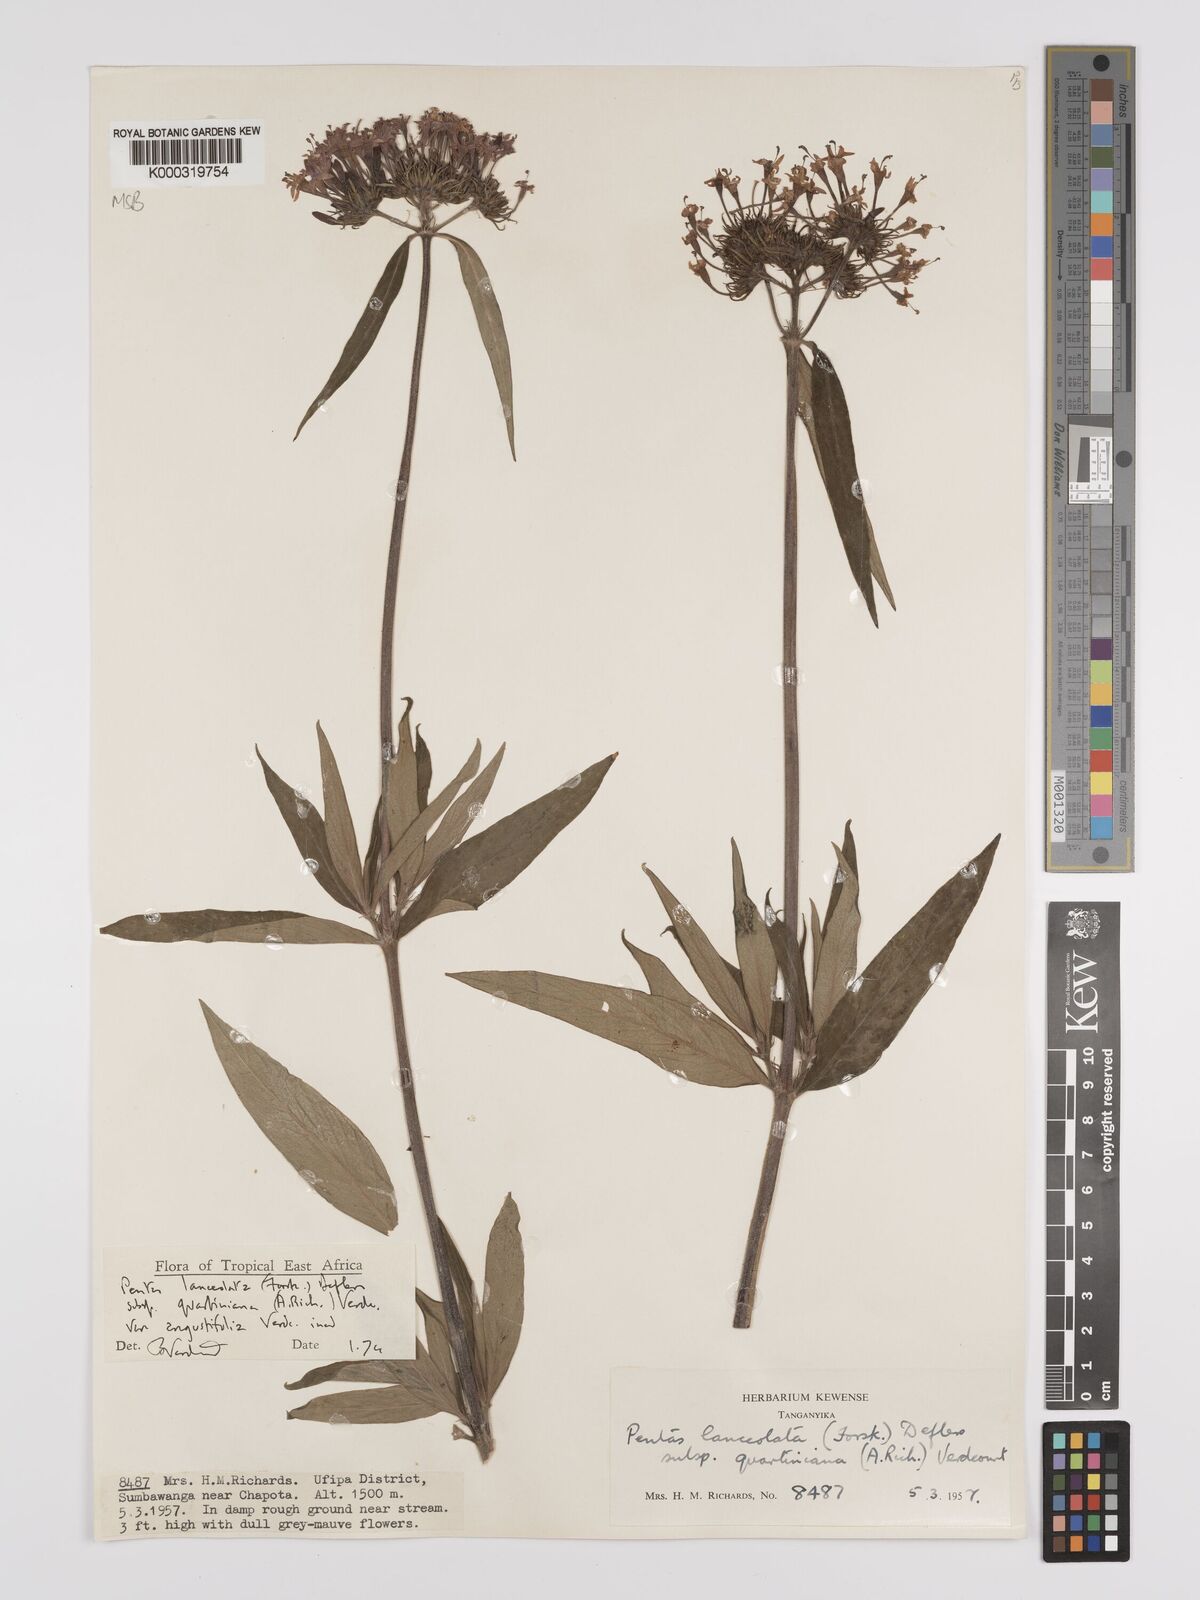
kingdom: Plantae
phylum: Tracheophyta
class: Magnoliopsida
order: Gentianales
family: Rubiaceae
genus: Pentas
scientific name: Pentas lanceolata
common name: Egyptian starcluster
